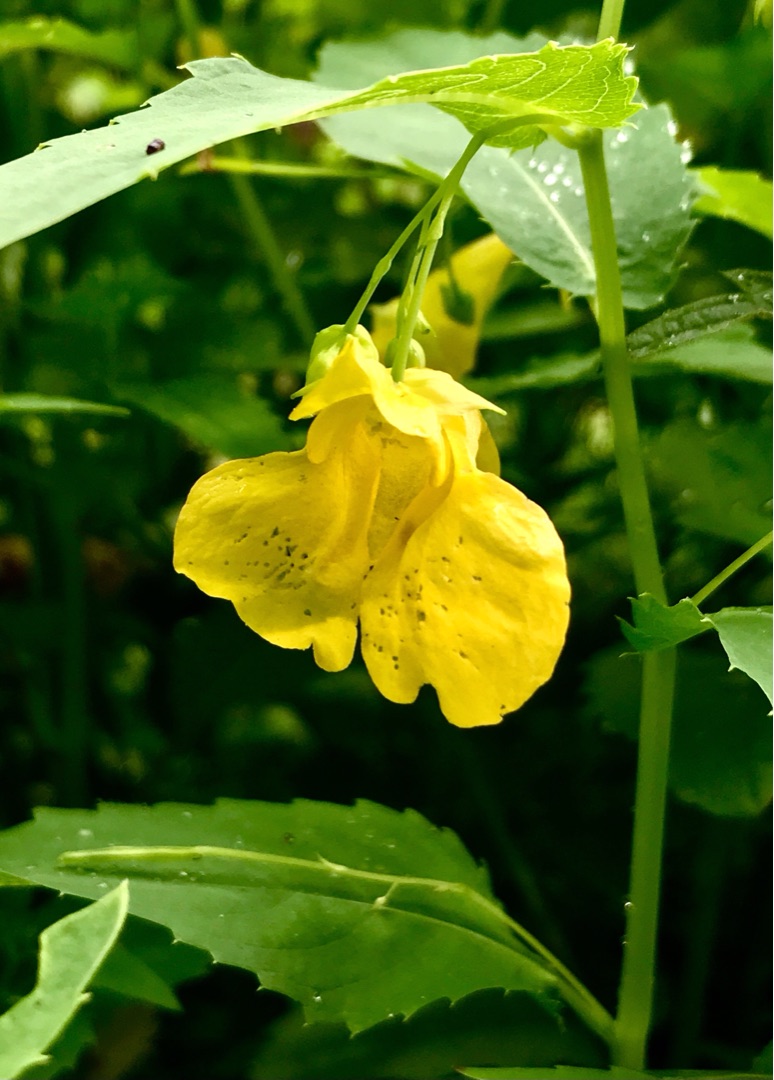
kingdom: Plantae
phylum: Tracheophyta
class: Magnoliopsida
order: Ericales
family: Balsaminaceae
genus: Impatiens
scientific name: Impatiens noli-tangere
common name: Spring-balsamin
